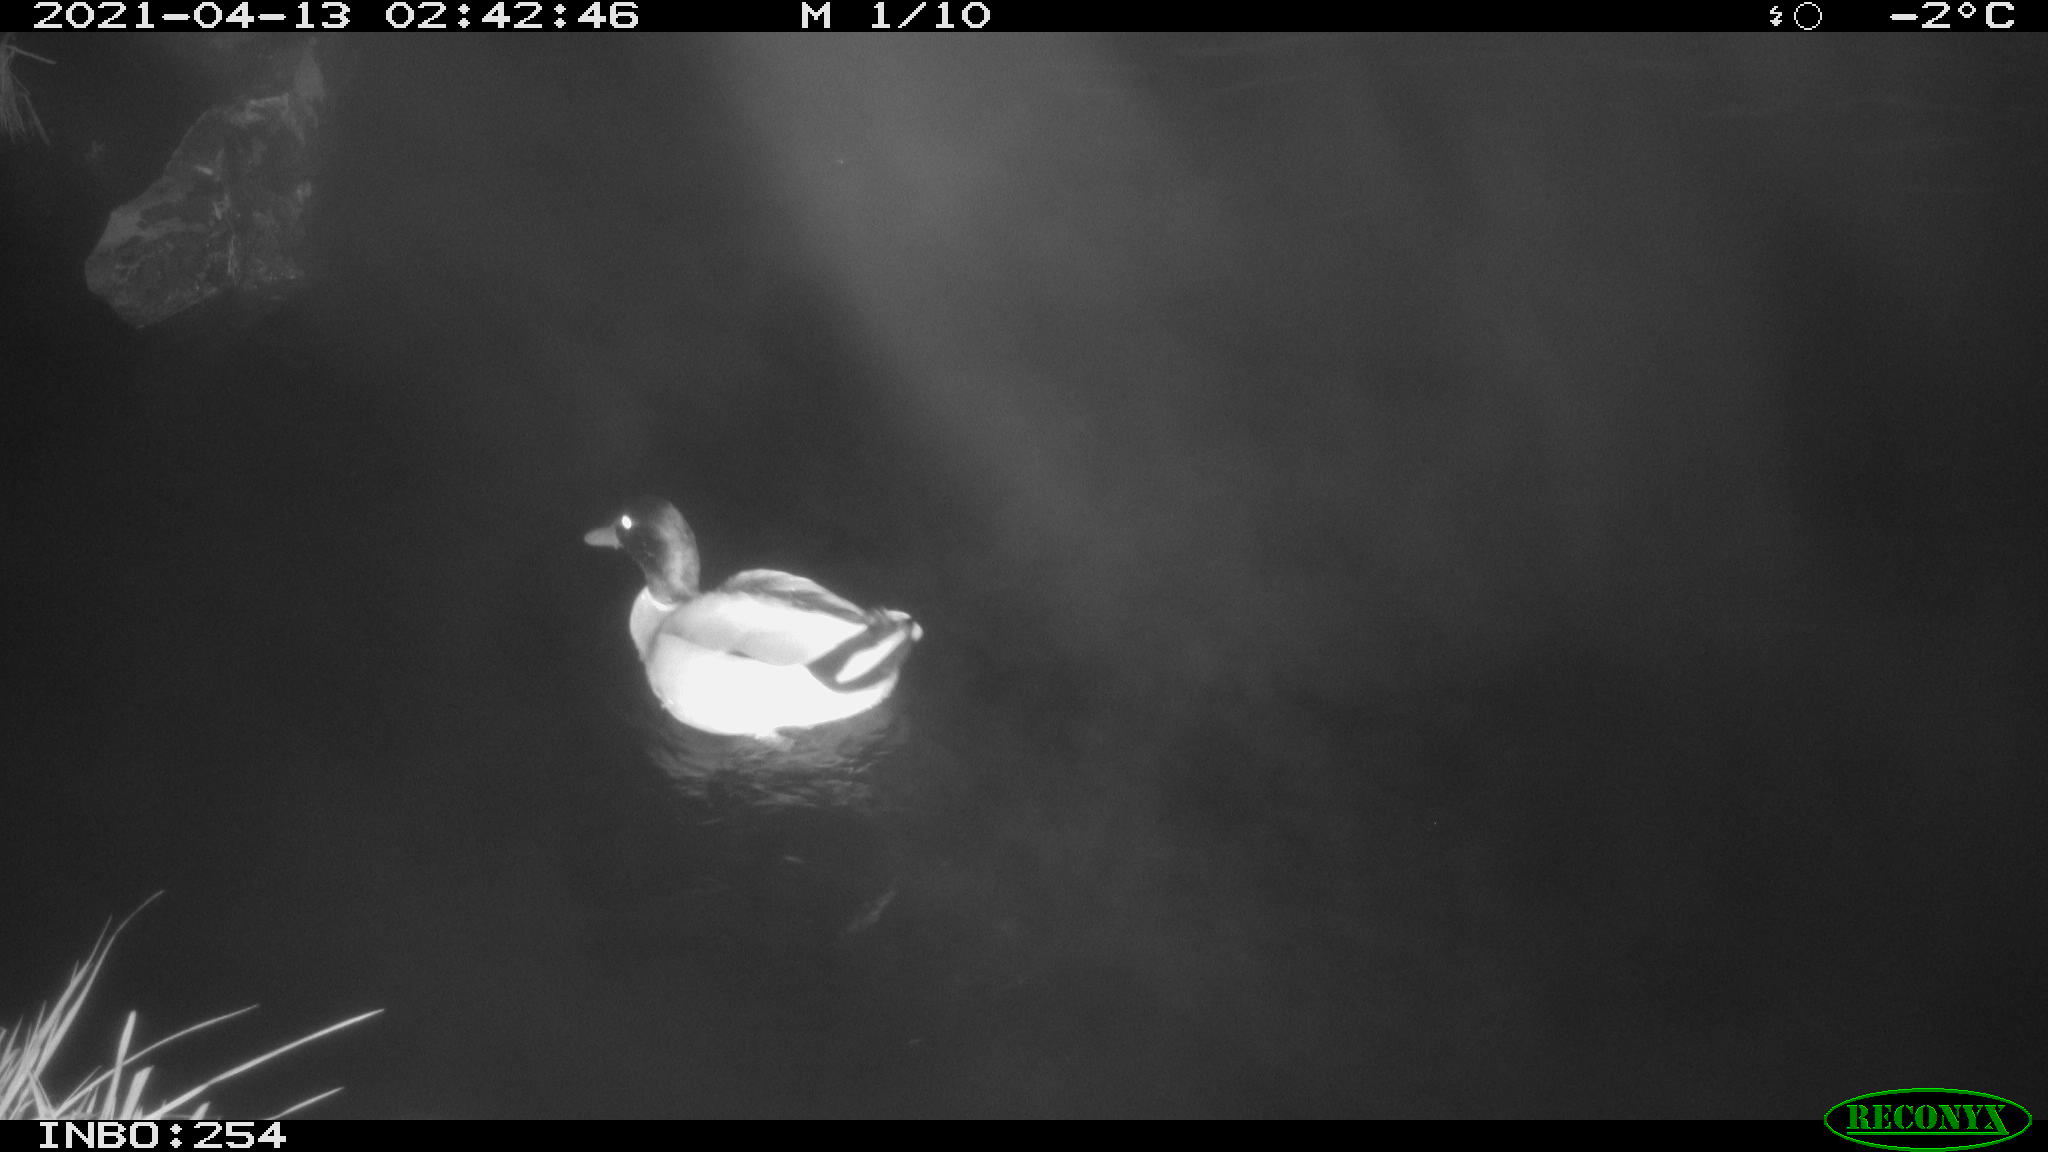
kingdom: Animalia
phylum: Chordata
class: Aves
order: Anseriformes
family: Anatidae
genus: Anas
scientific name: Anas
